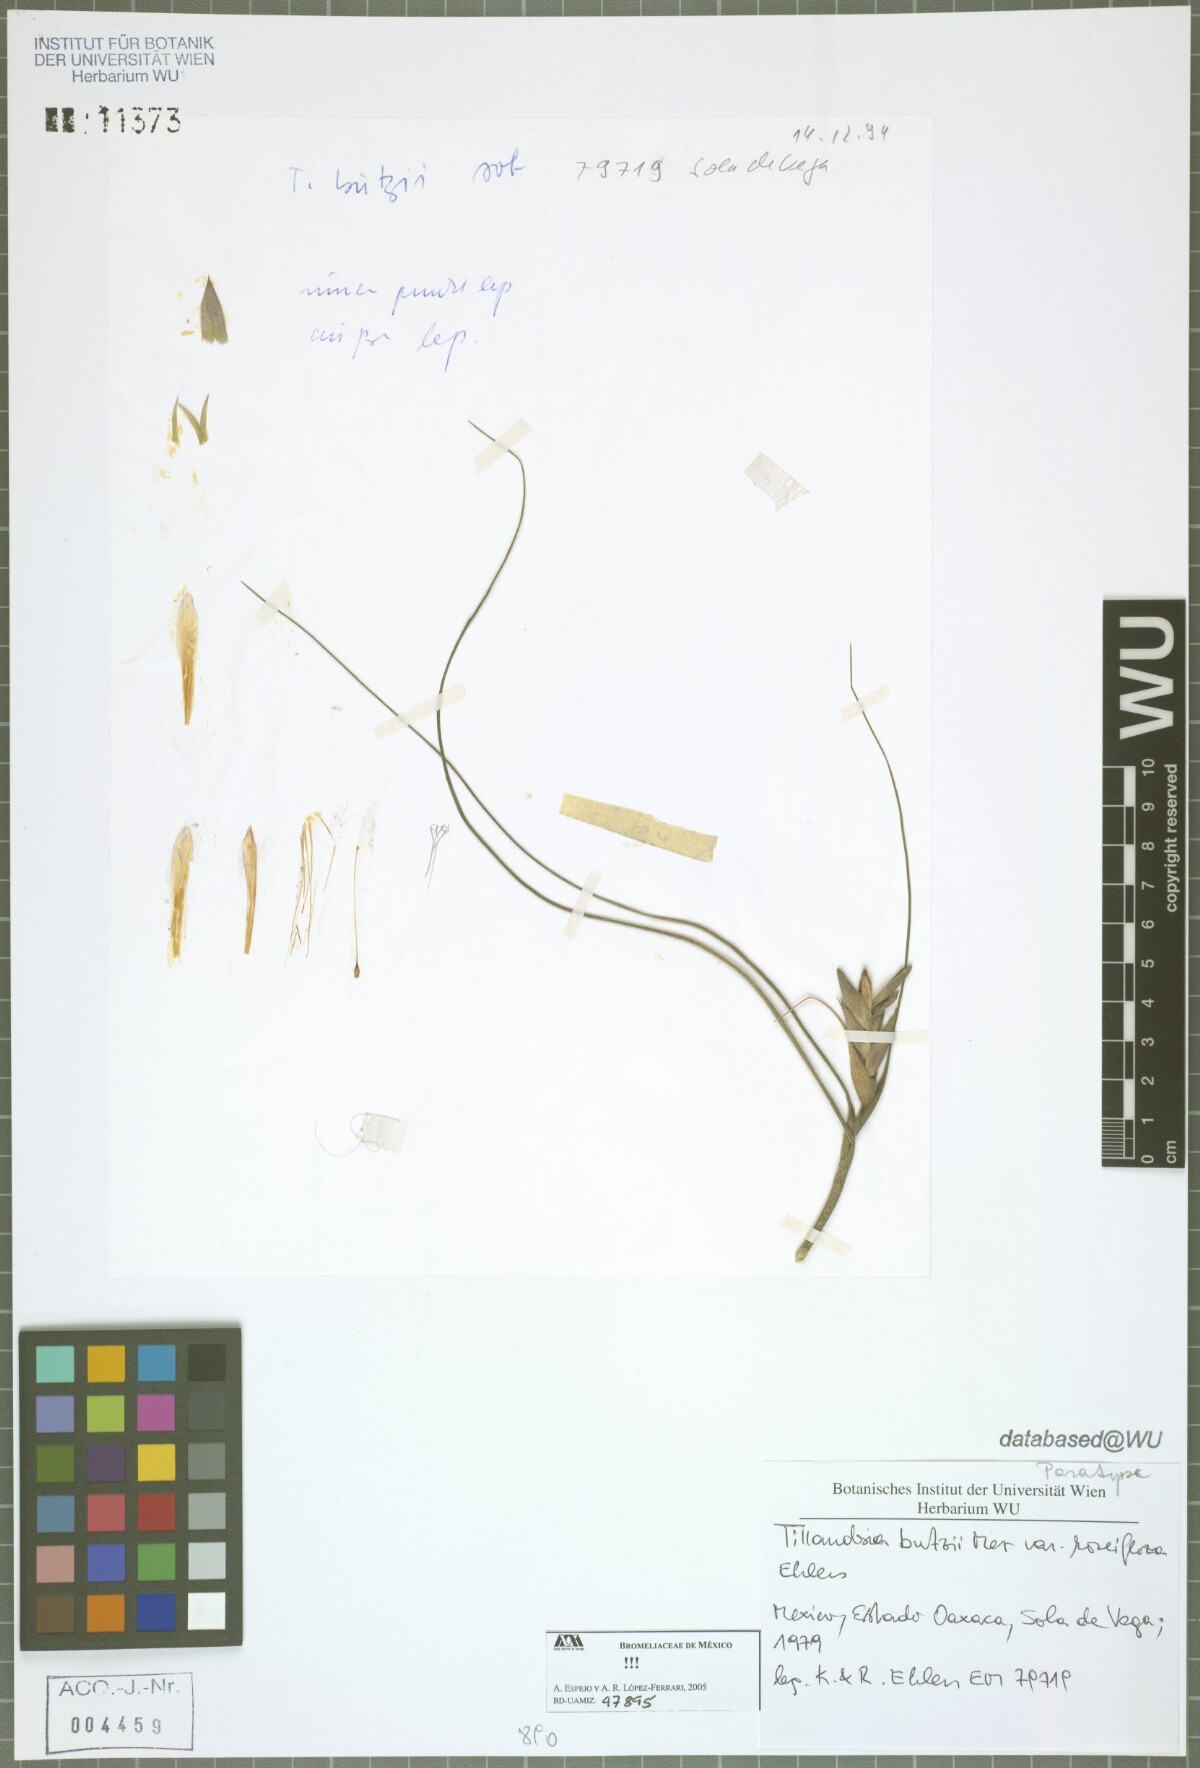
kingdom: Plantae
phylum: Tracheophyta
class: Liliopsida
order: Poales
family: Bromeliaceae
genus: Tillandsia
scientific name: Tillandsia butzii
